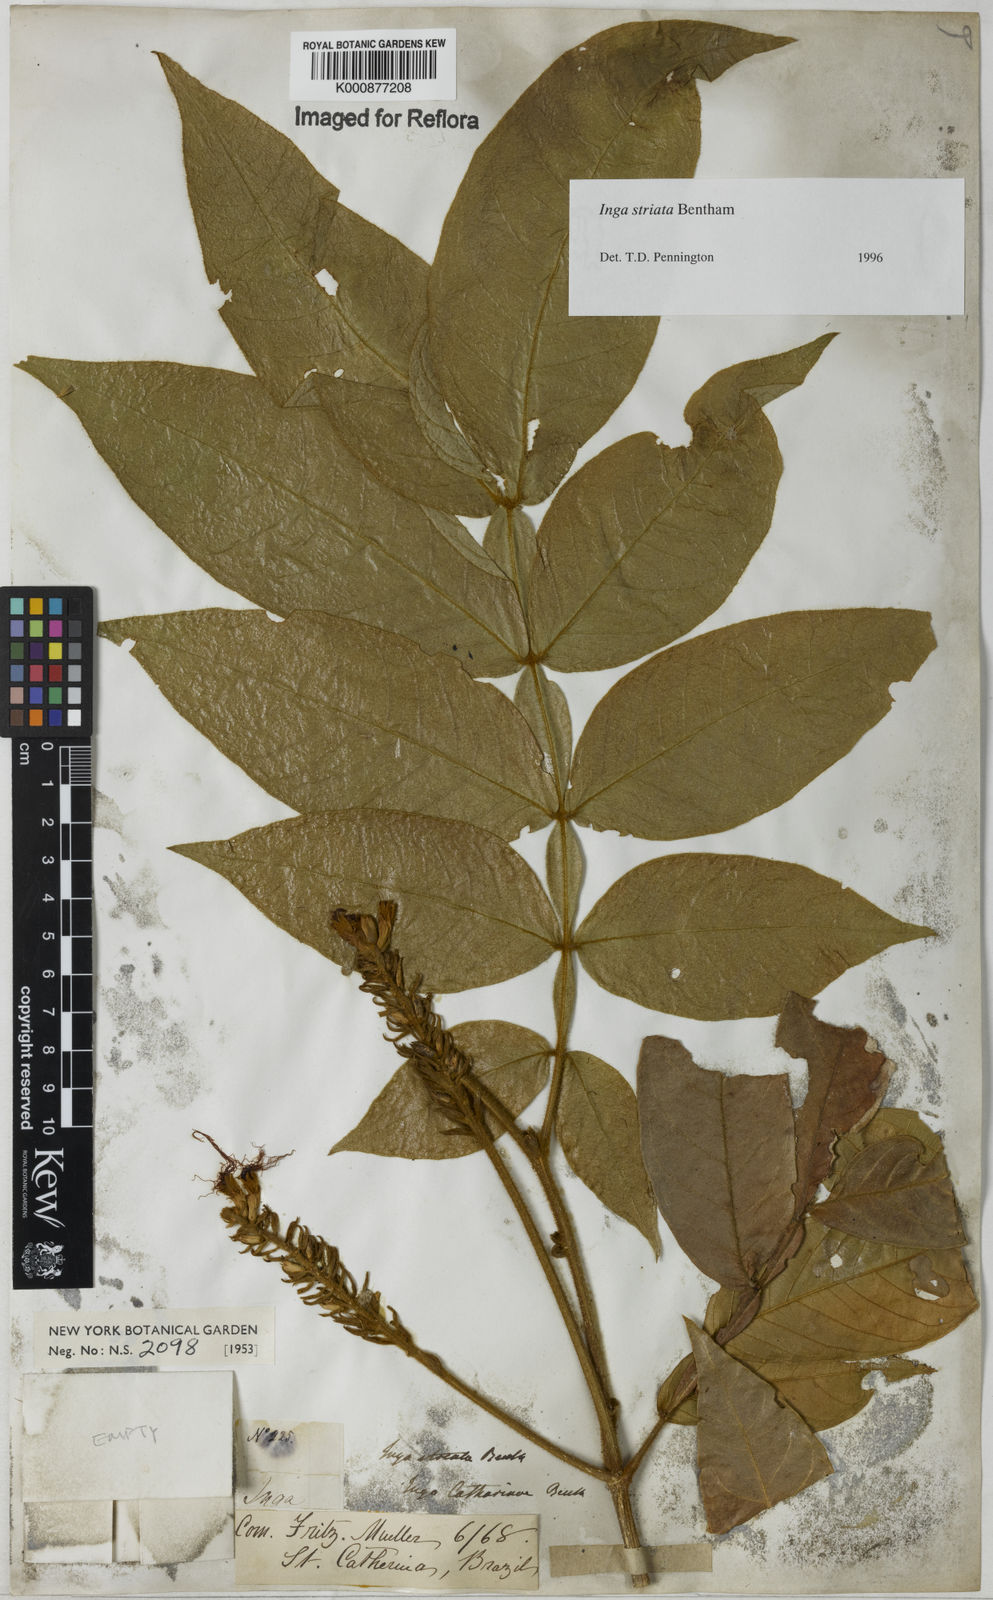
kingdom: Plantae
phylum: Tracheophyta
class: Magnoliopsida
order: Fabales
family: Fabaceae
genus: Inga
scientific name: Inga striata
